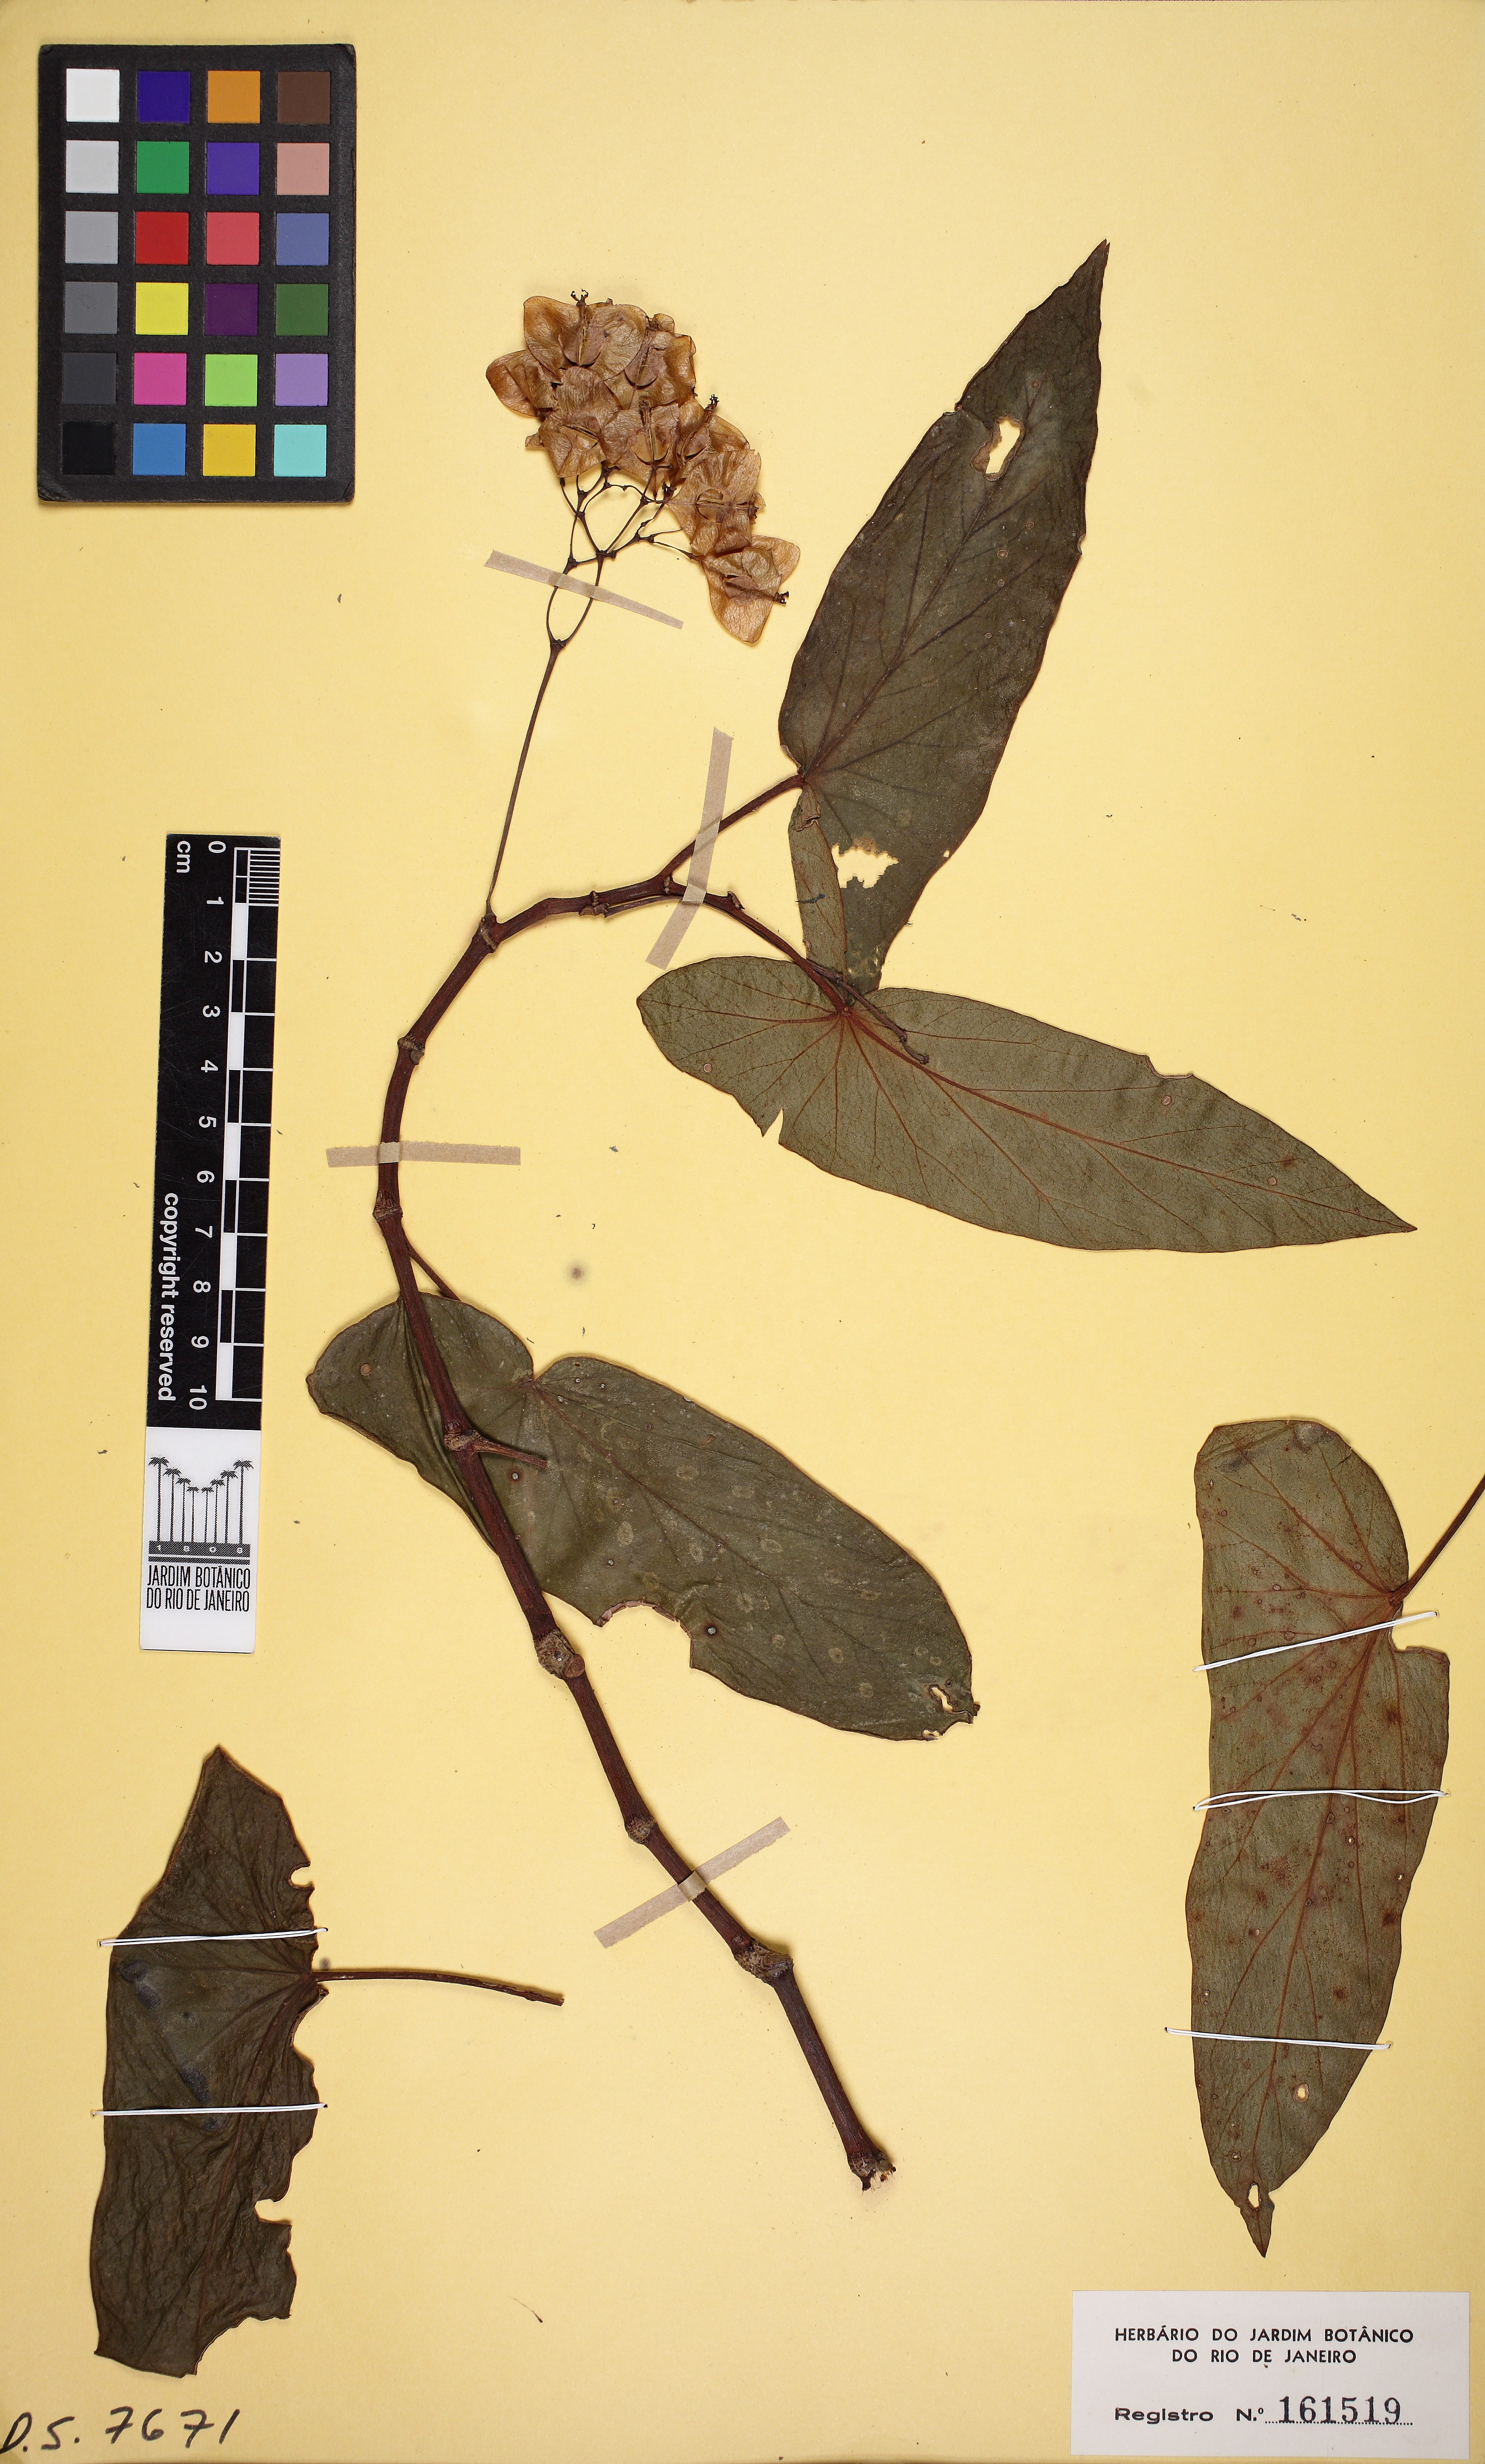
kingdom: Plantae
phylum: Tracheophyta
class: Magnoliopsida
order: Cucurbitales
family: Begoniaceae
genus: Begonia
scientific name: Begonia maculata
